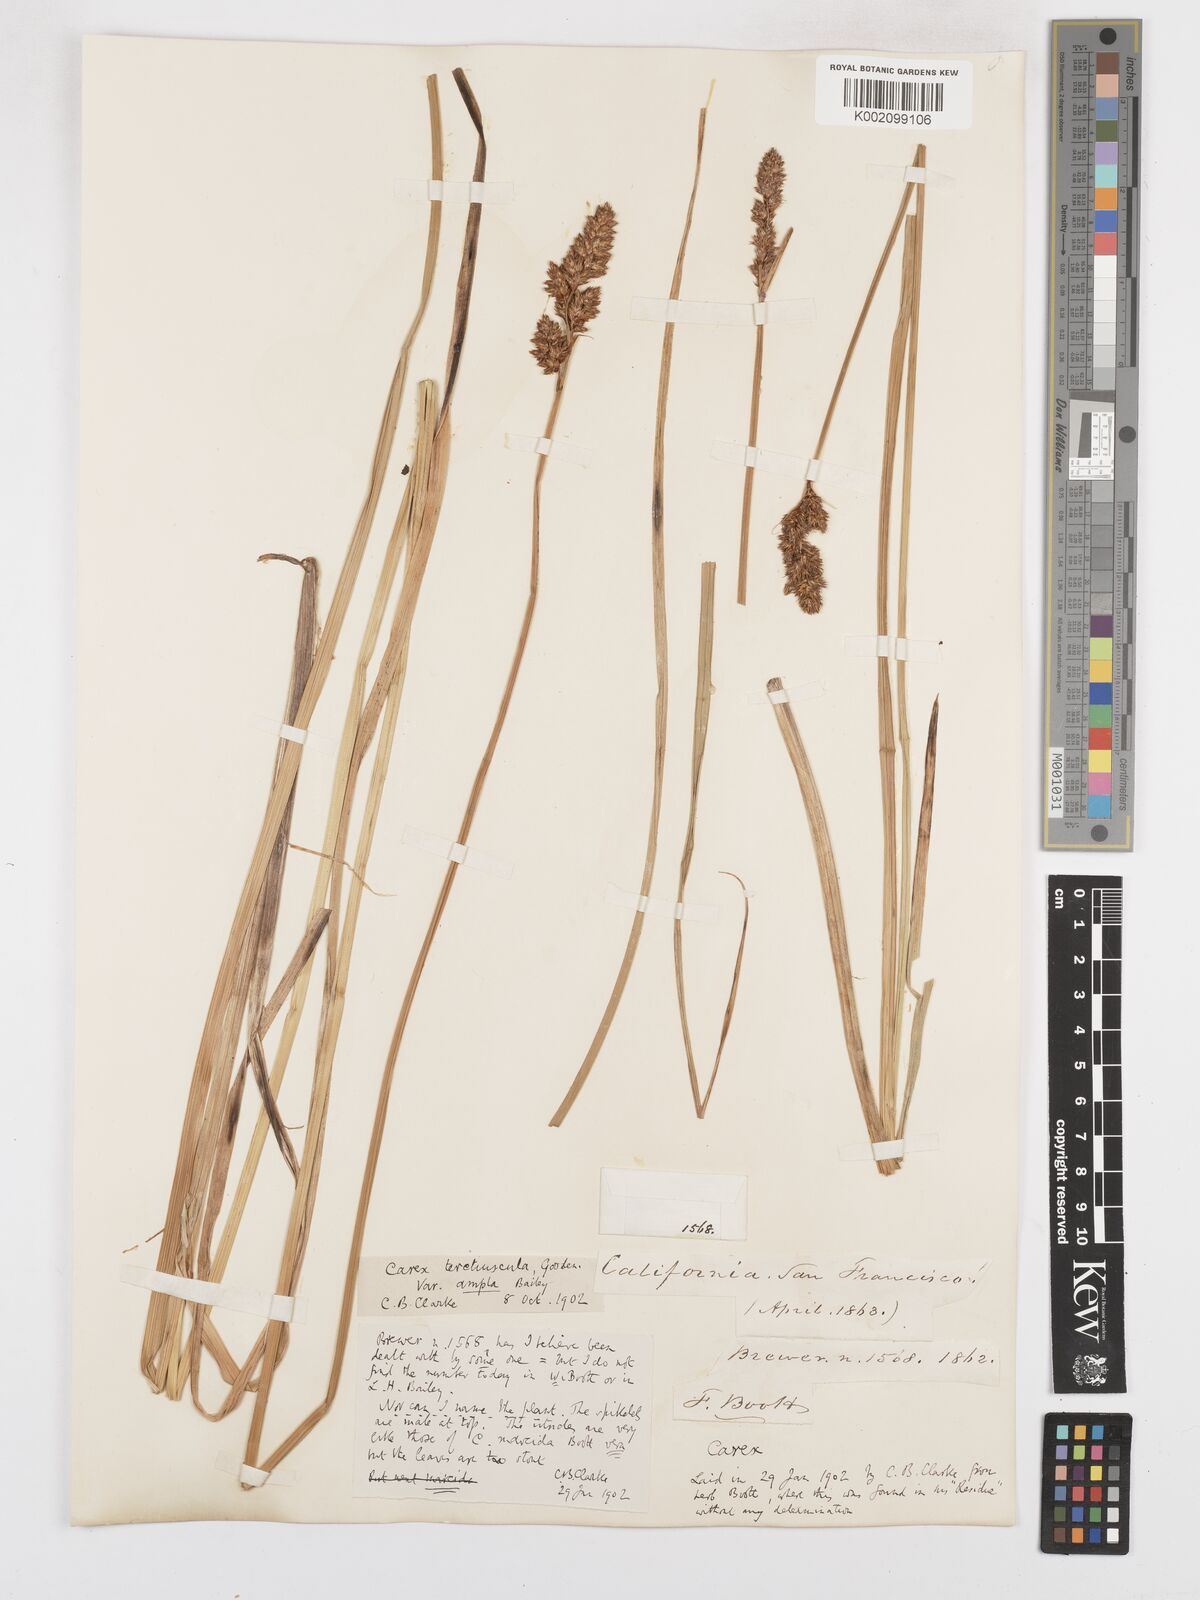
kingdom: Plantae
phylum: Tracheophyta
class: Liliopsida
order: Poales
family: Cyperaceae
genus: Carex
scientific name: Carex cusickii
